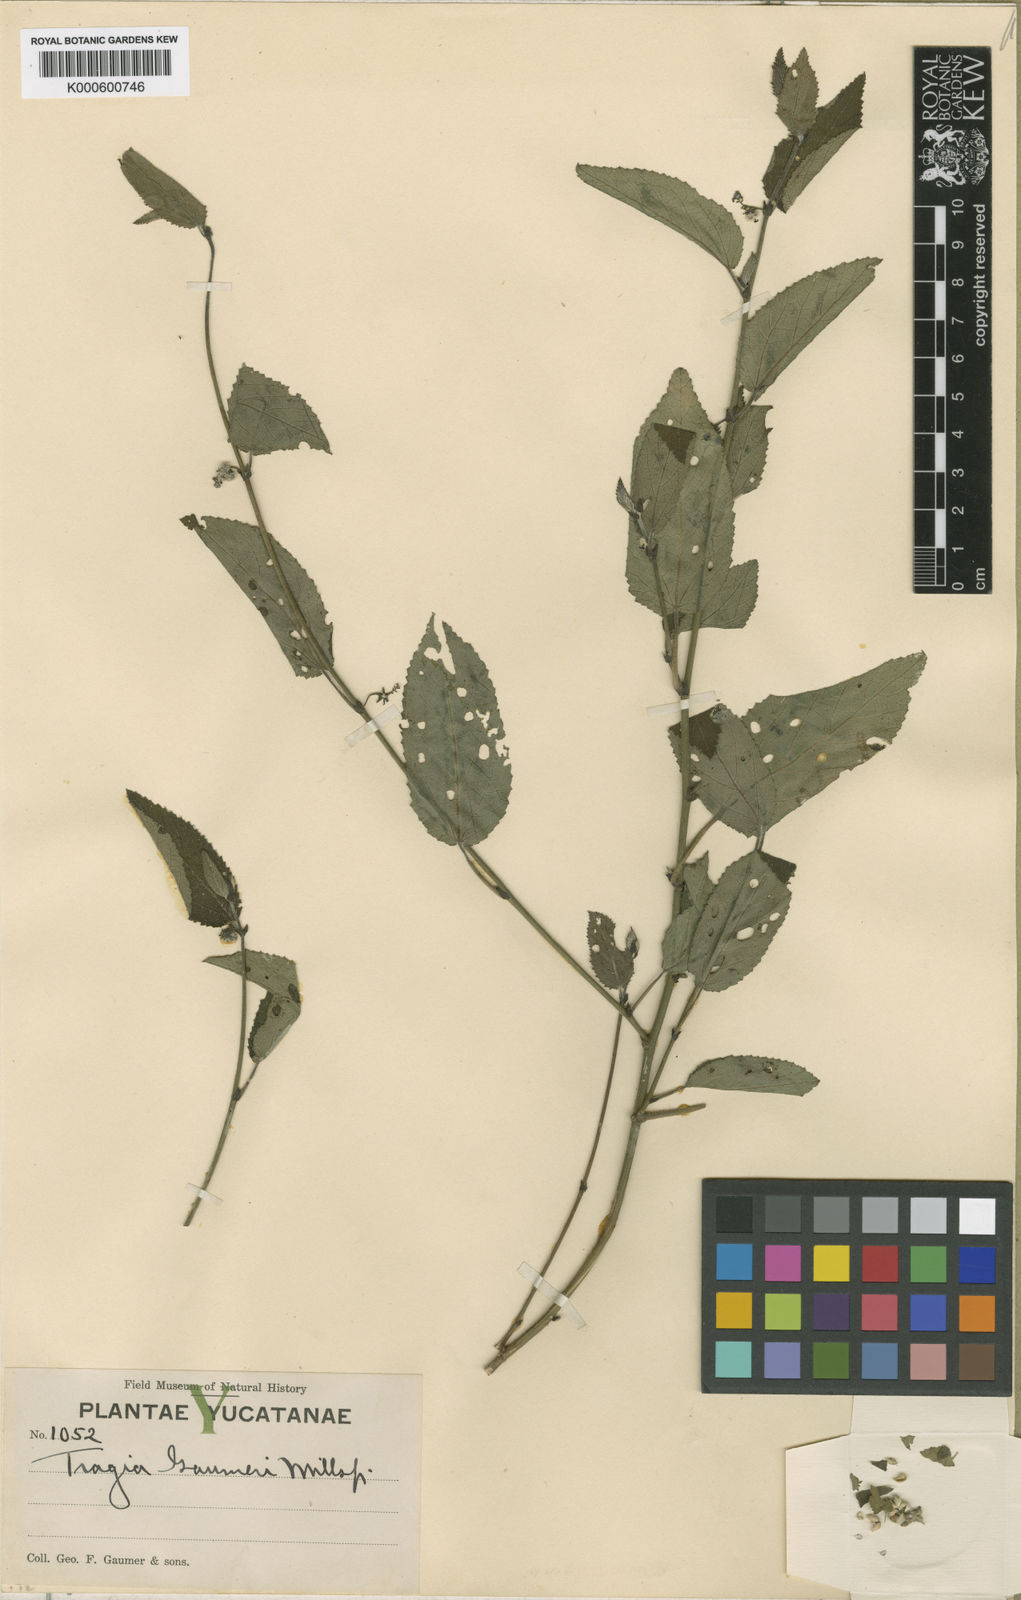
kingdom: Plantae
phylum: Tracheophyta
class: Magnoliopsida
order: Malpighiales
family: Euphorbiaceae
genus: Tragia
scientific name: Tragia
